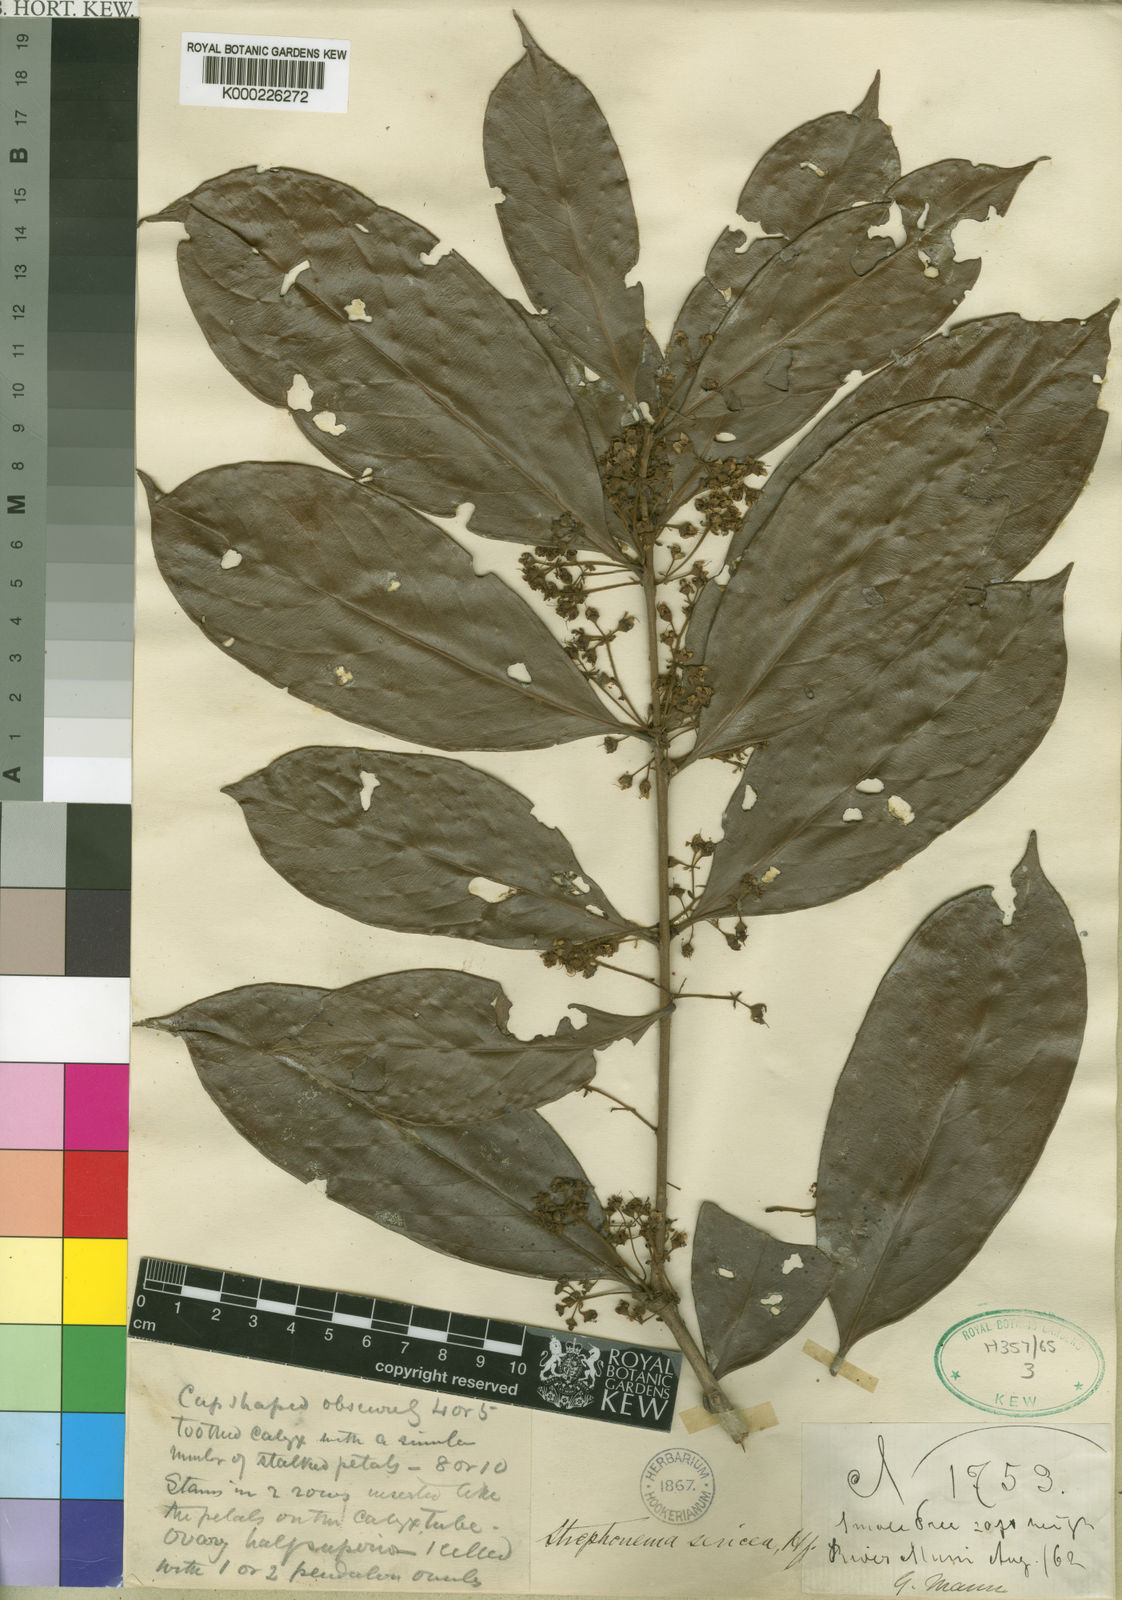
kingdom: Plantae
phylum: Tracheophyta
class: Magnoliopsida
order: Myrtales
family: Combretaceae
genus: Strephonema
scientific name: Strephonema sericeum
